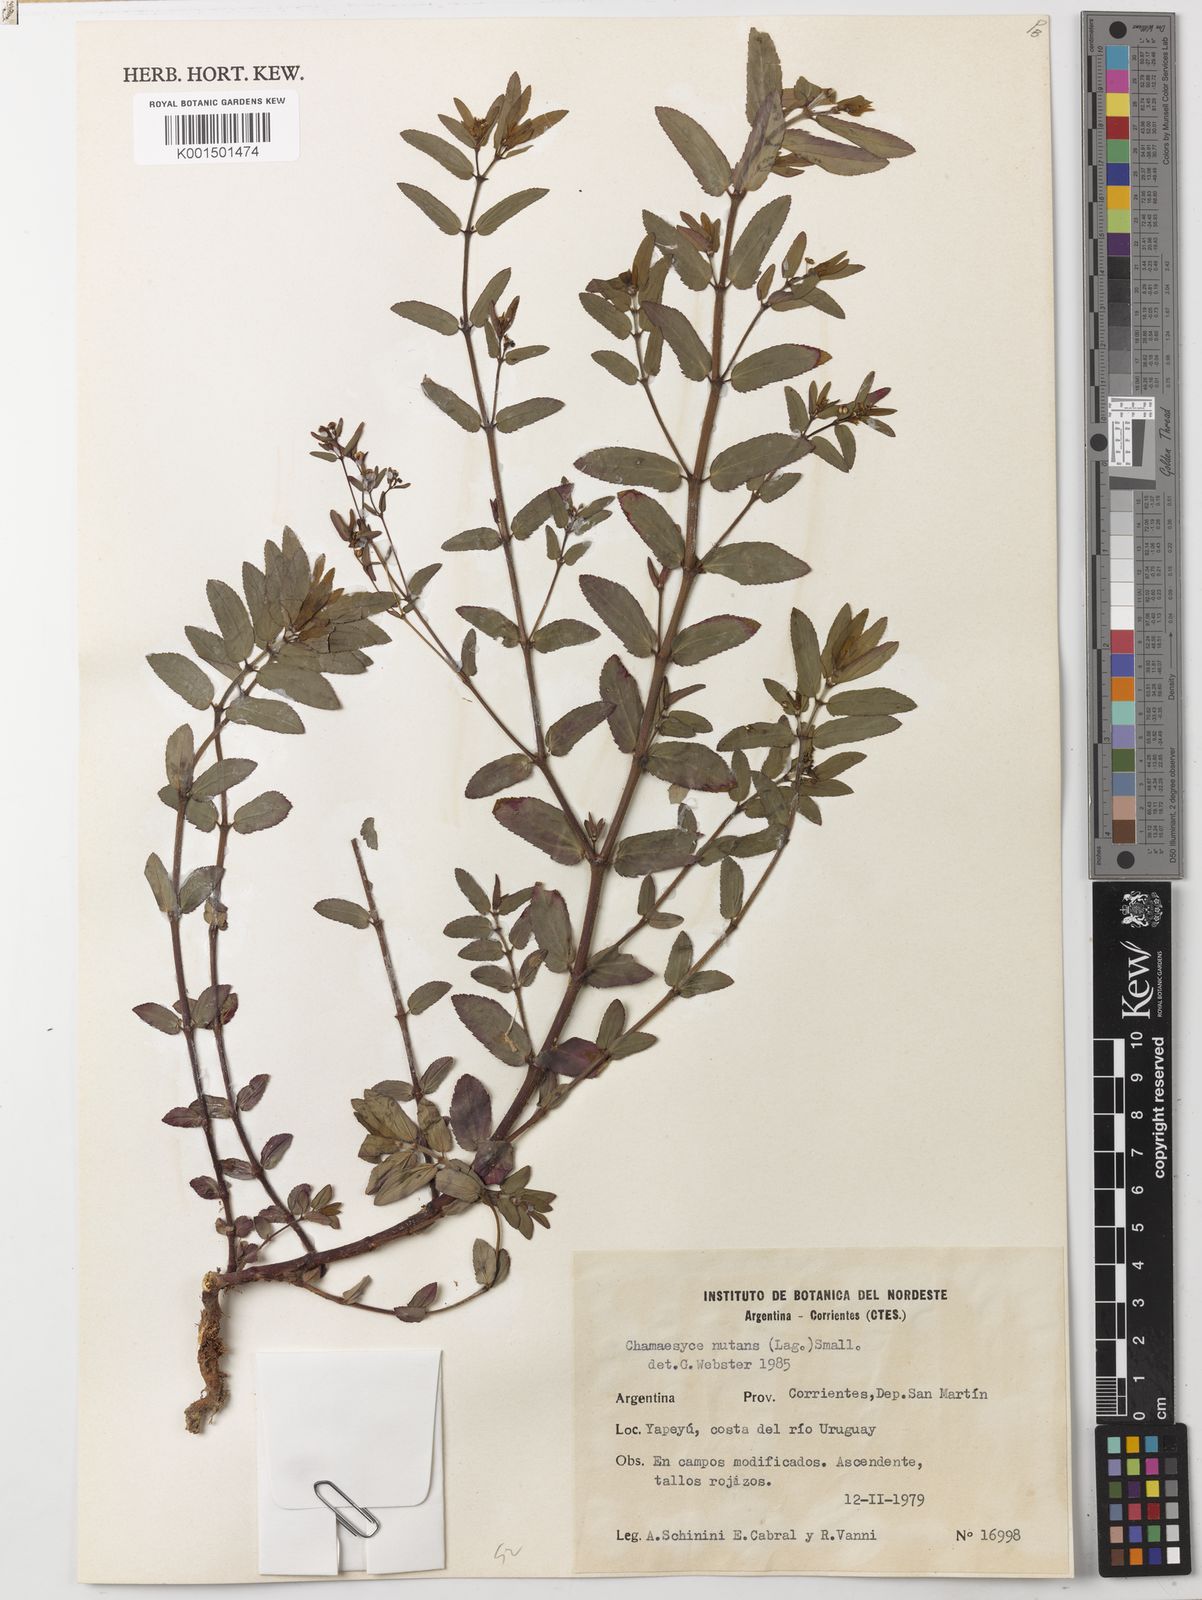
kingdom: Plantae
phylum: Tracheophyta
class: Magnoliopsida
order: Malpighiales
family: Euphorbiaceae
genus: Euphorbia
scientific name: Euphorbia nutans
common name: Eyebane
